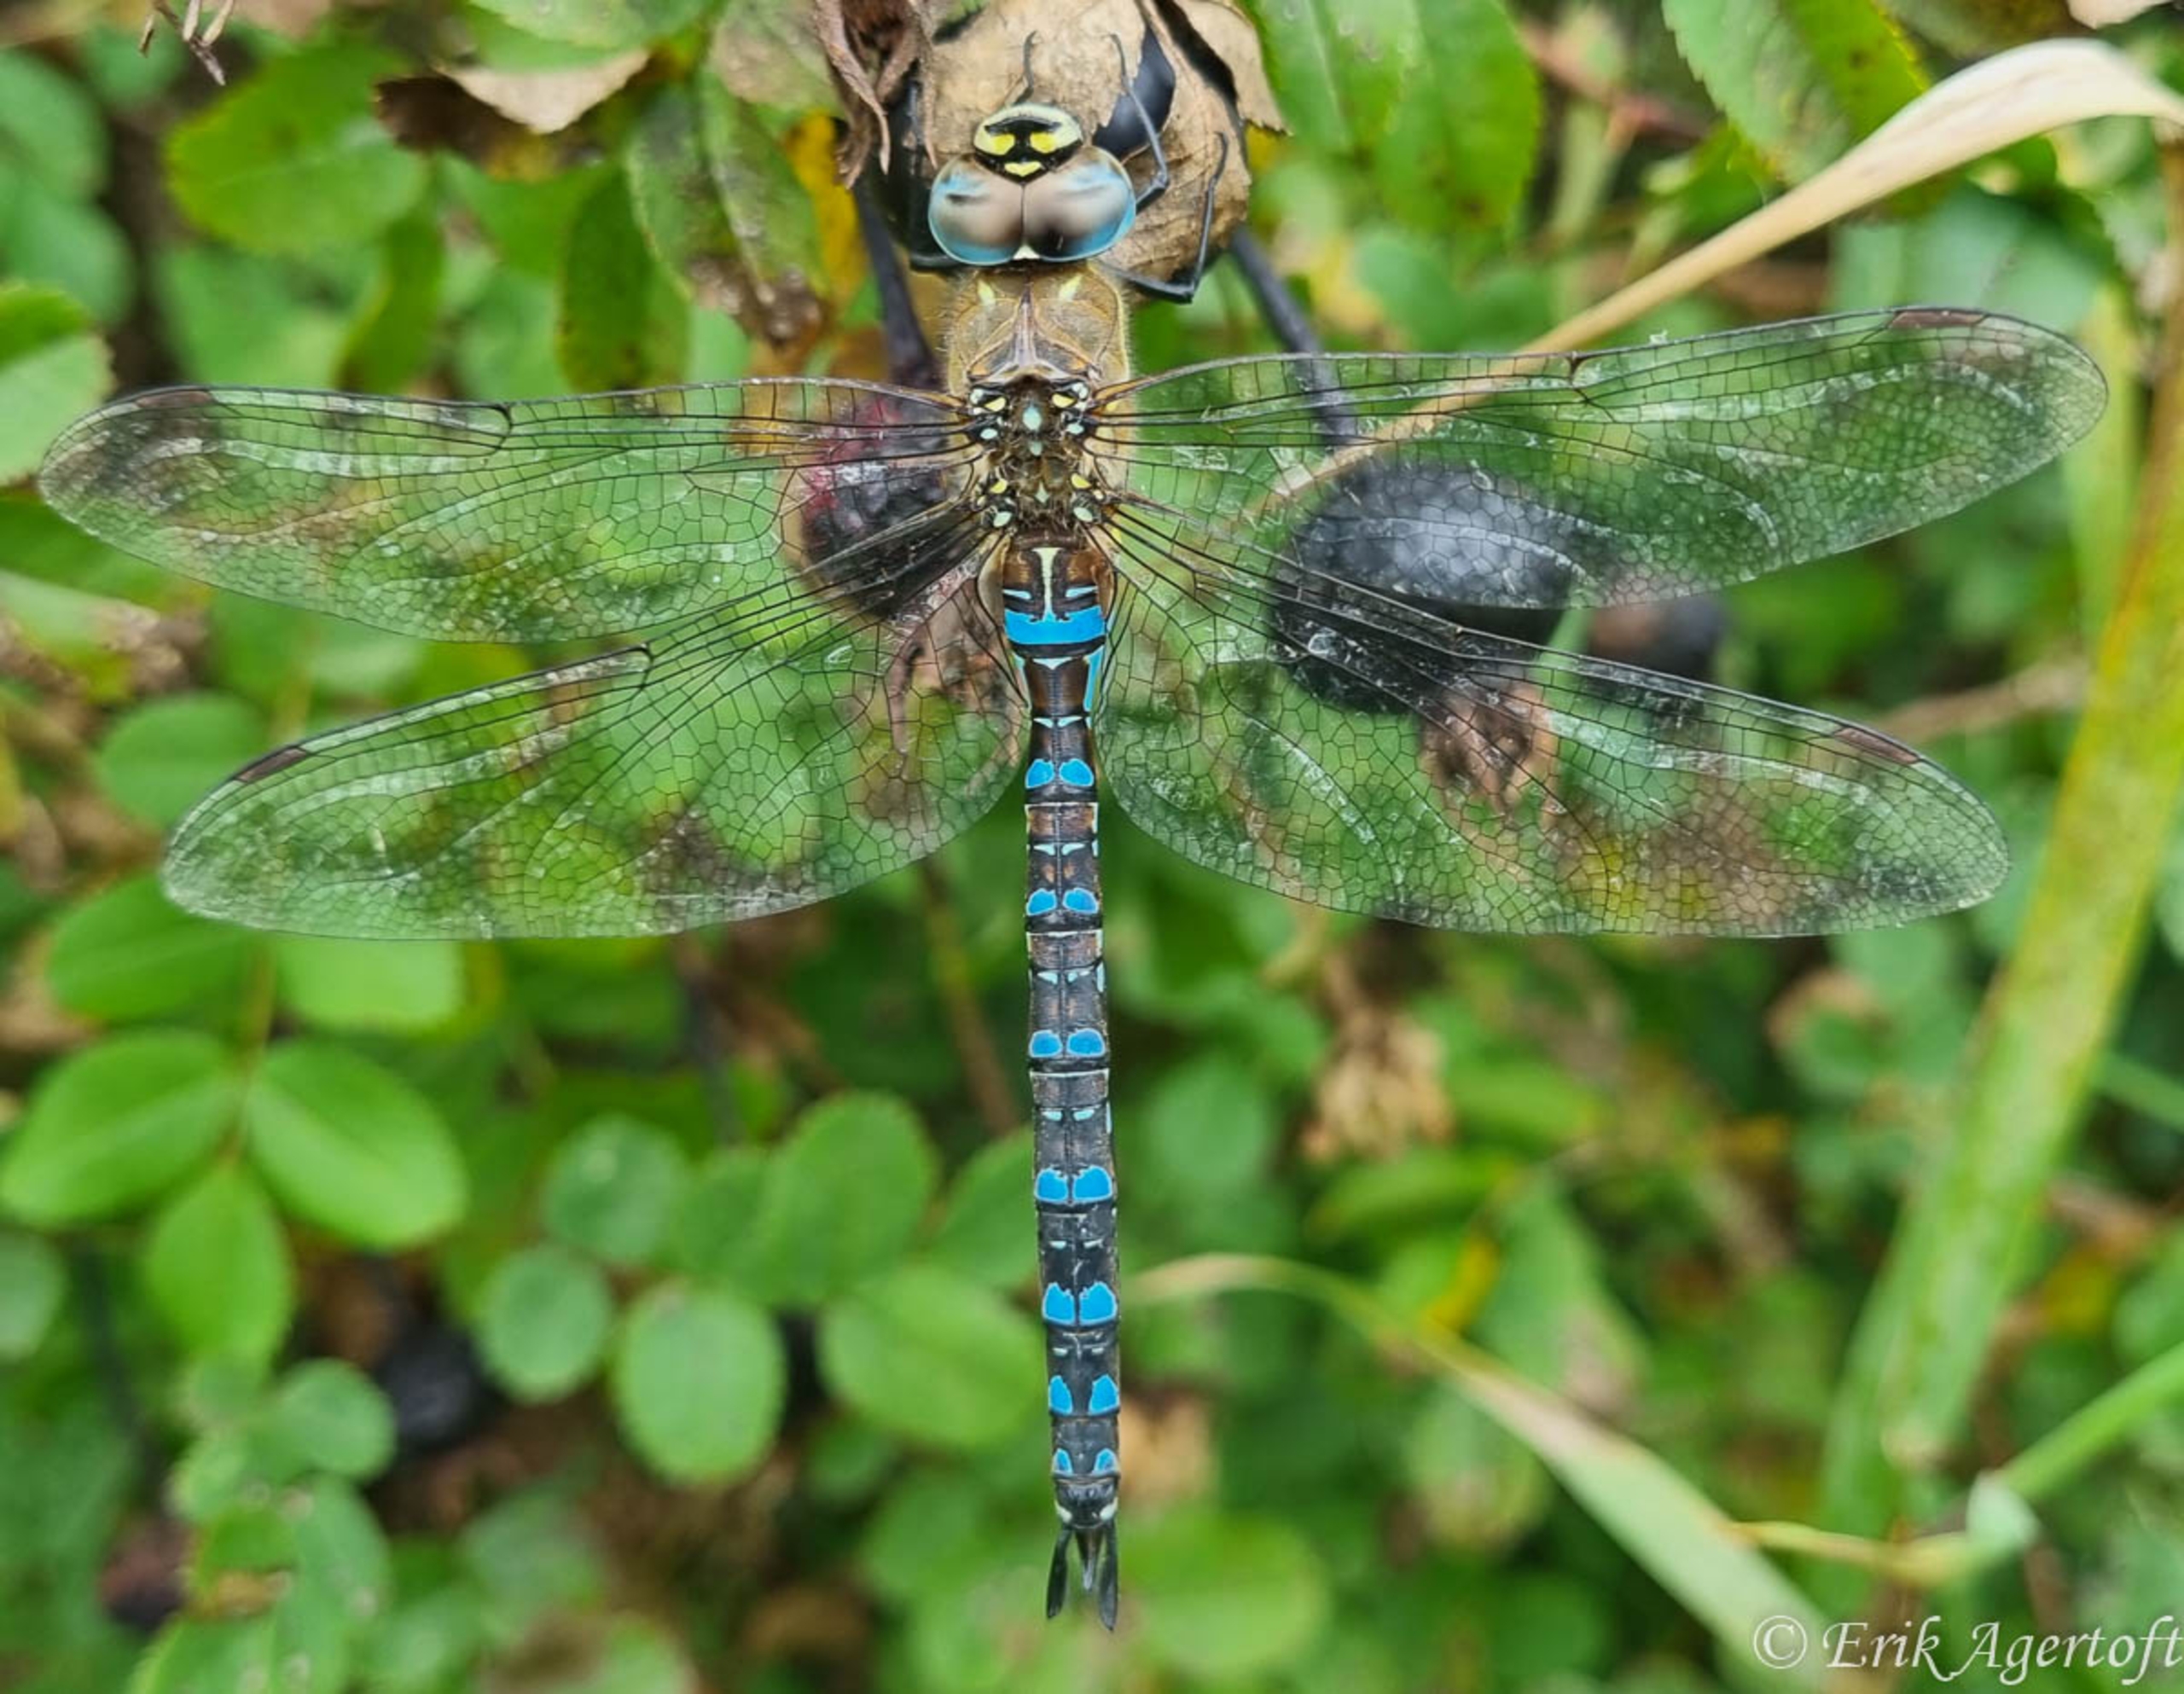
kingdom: Animalia
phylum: Arthropoda
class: Insecta
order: Odonata
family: Aeshnidae
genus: Aeshna
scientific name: Aeshna mixta
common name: Efterårs-mosaikguldsmed
